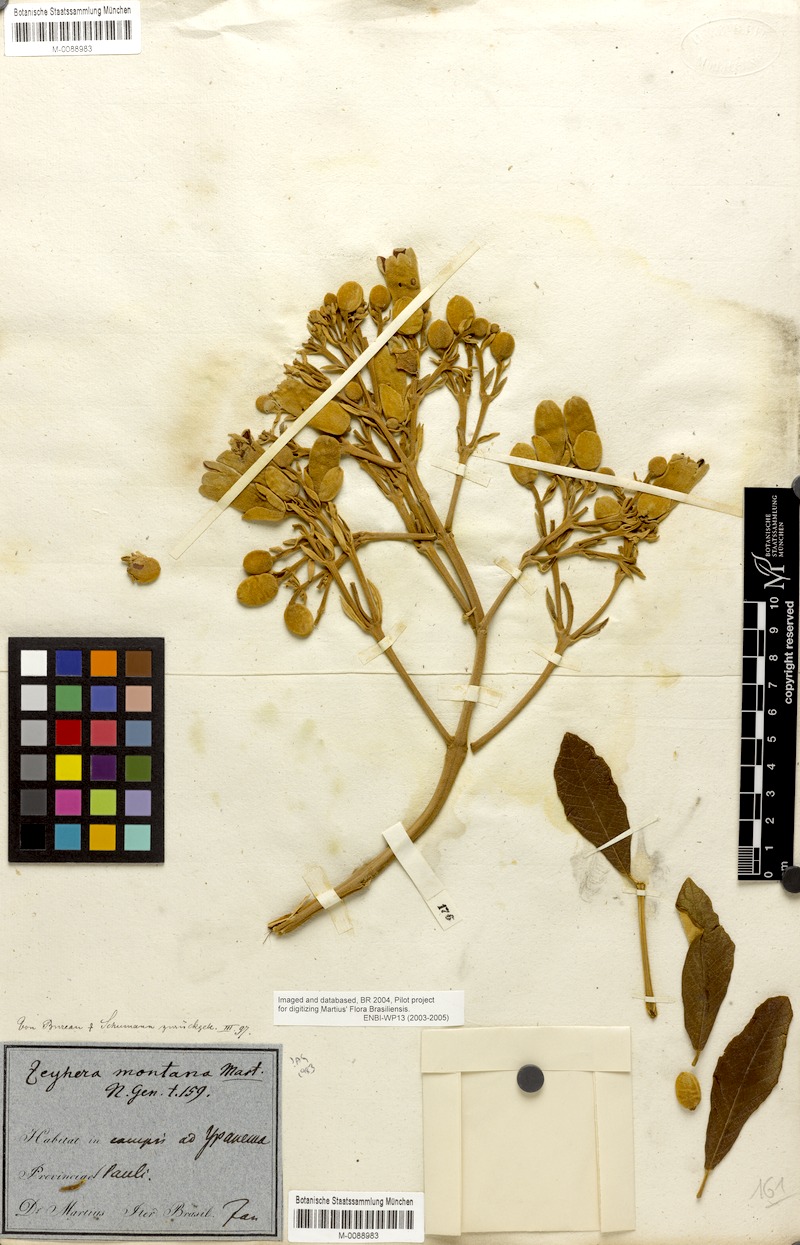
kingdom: Plantae
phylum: Tracheophyta
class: Magnoliopsida
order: Lamiales
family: Bignoniaceae
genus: Zeyheria
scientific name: Zeyheria montana
